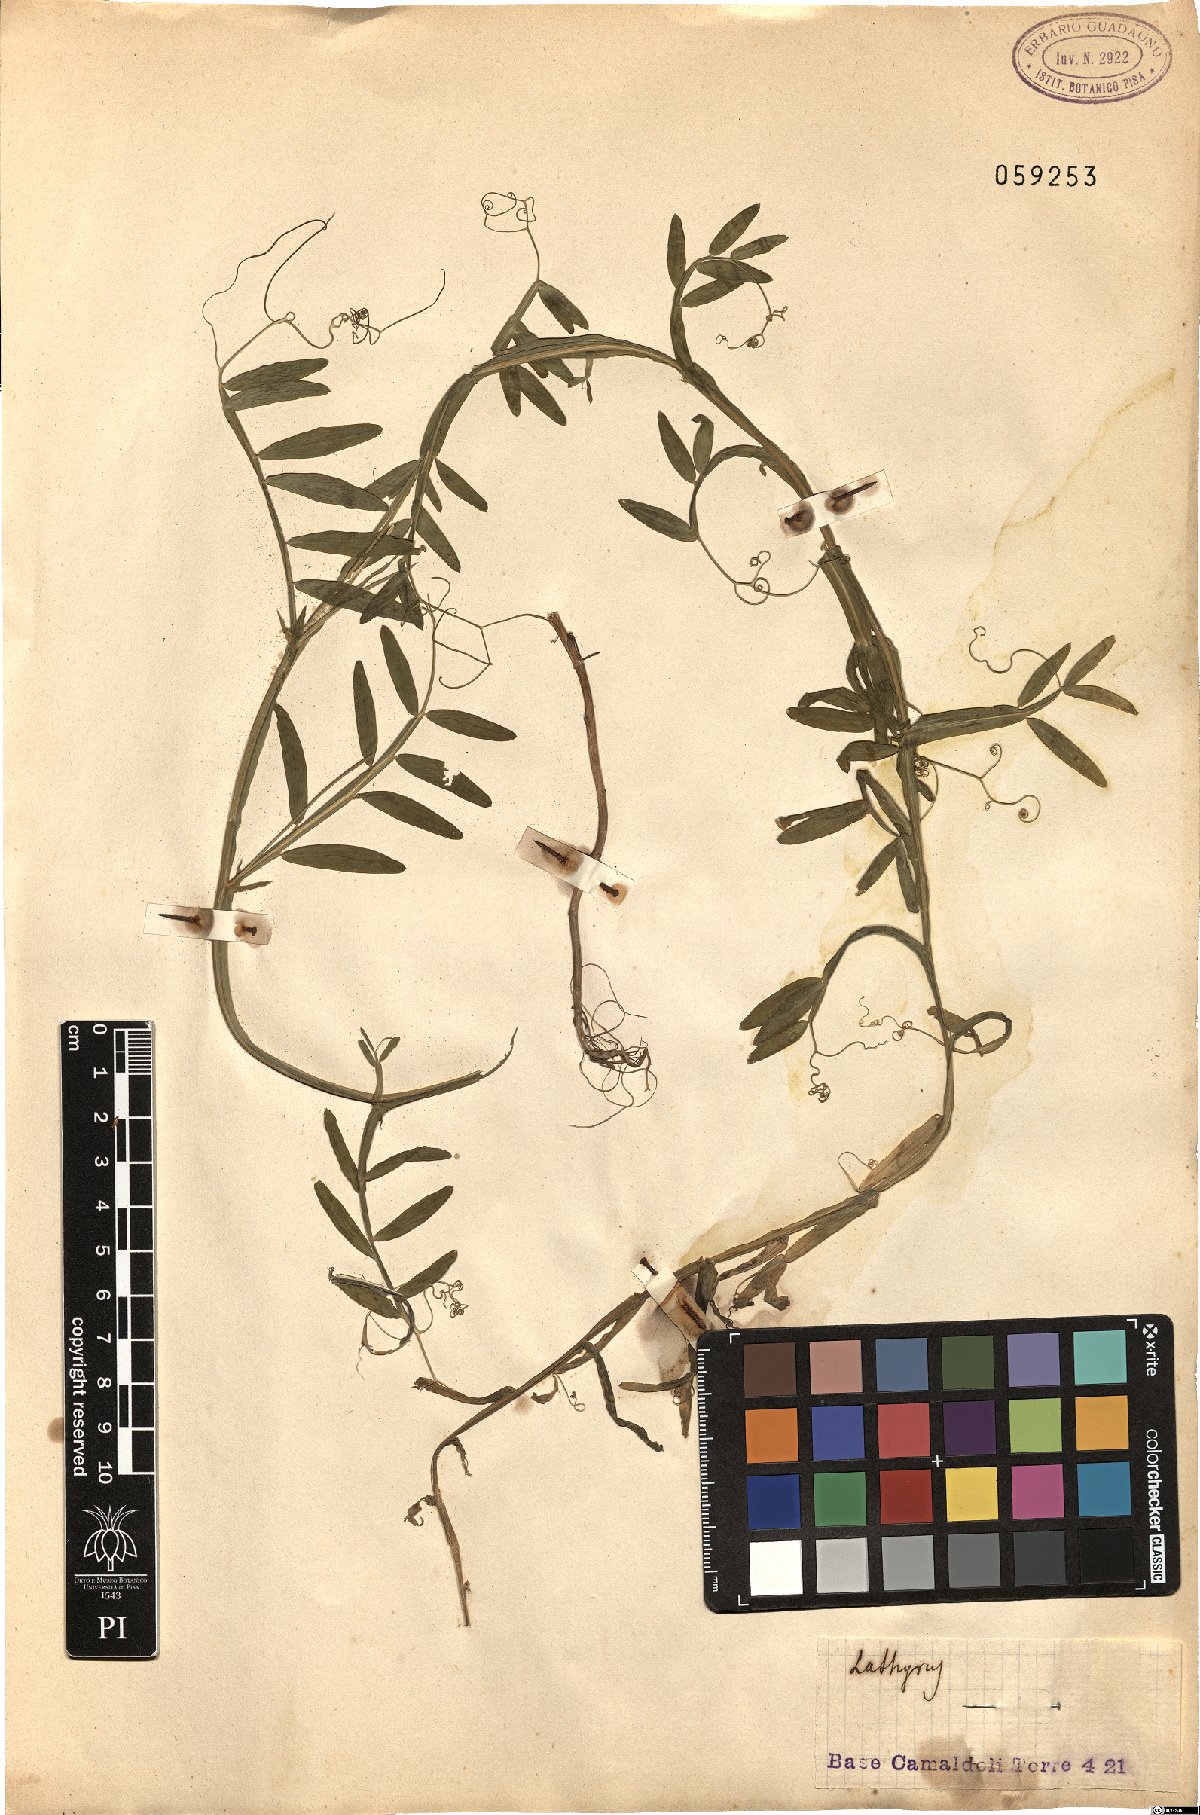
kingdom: Plantae
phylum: Tracheophyta
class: Magnoliopsida
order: Fabales
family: Fabaceae
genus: Lathyrus
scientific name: Lathyrus
